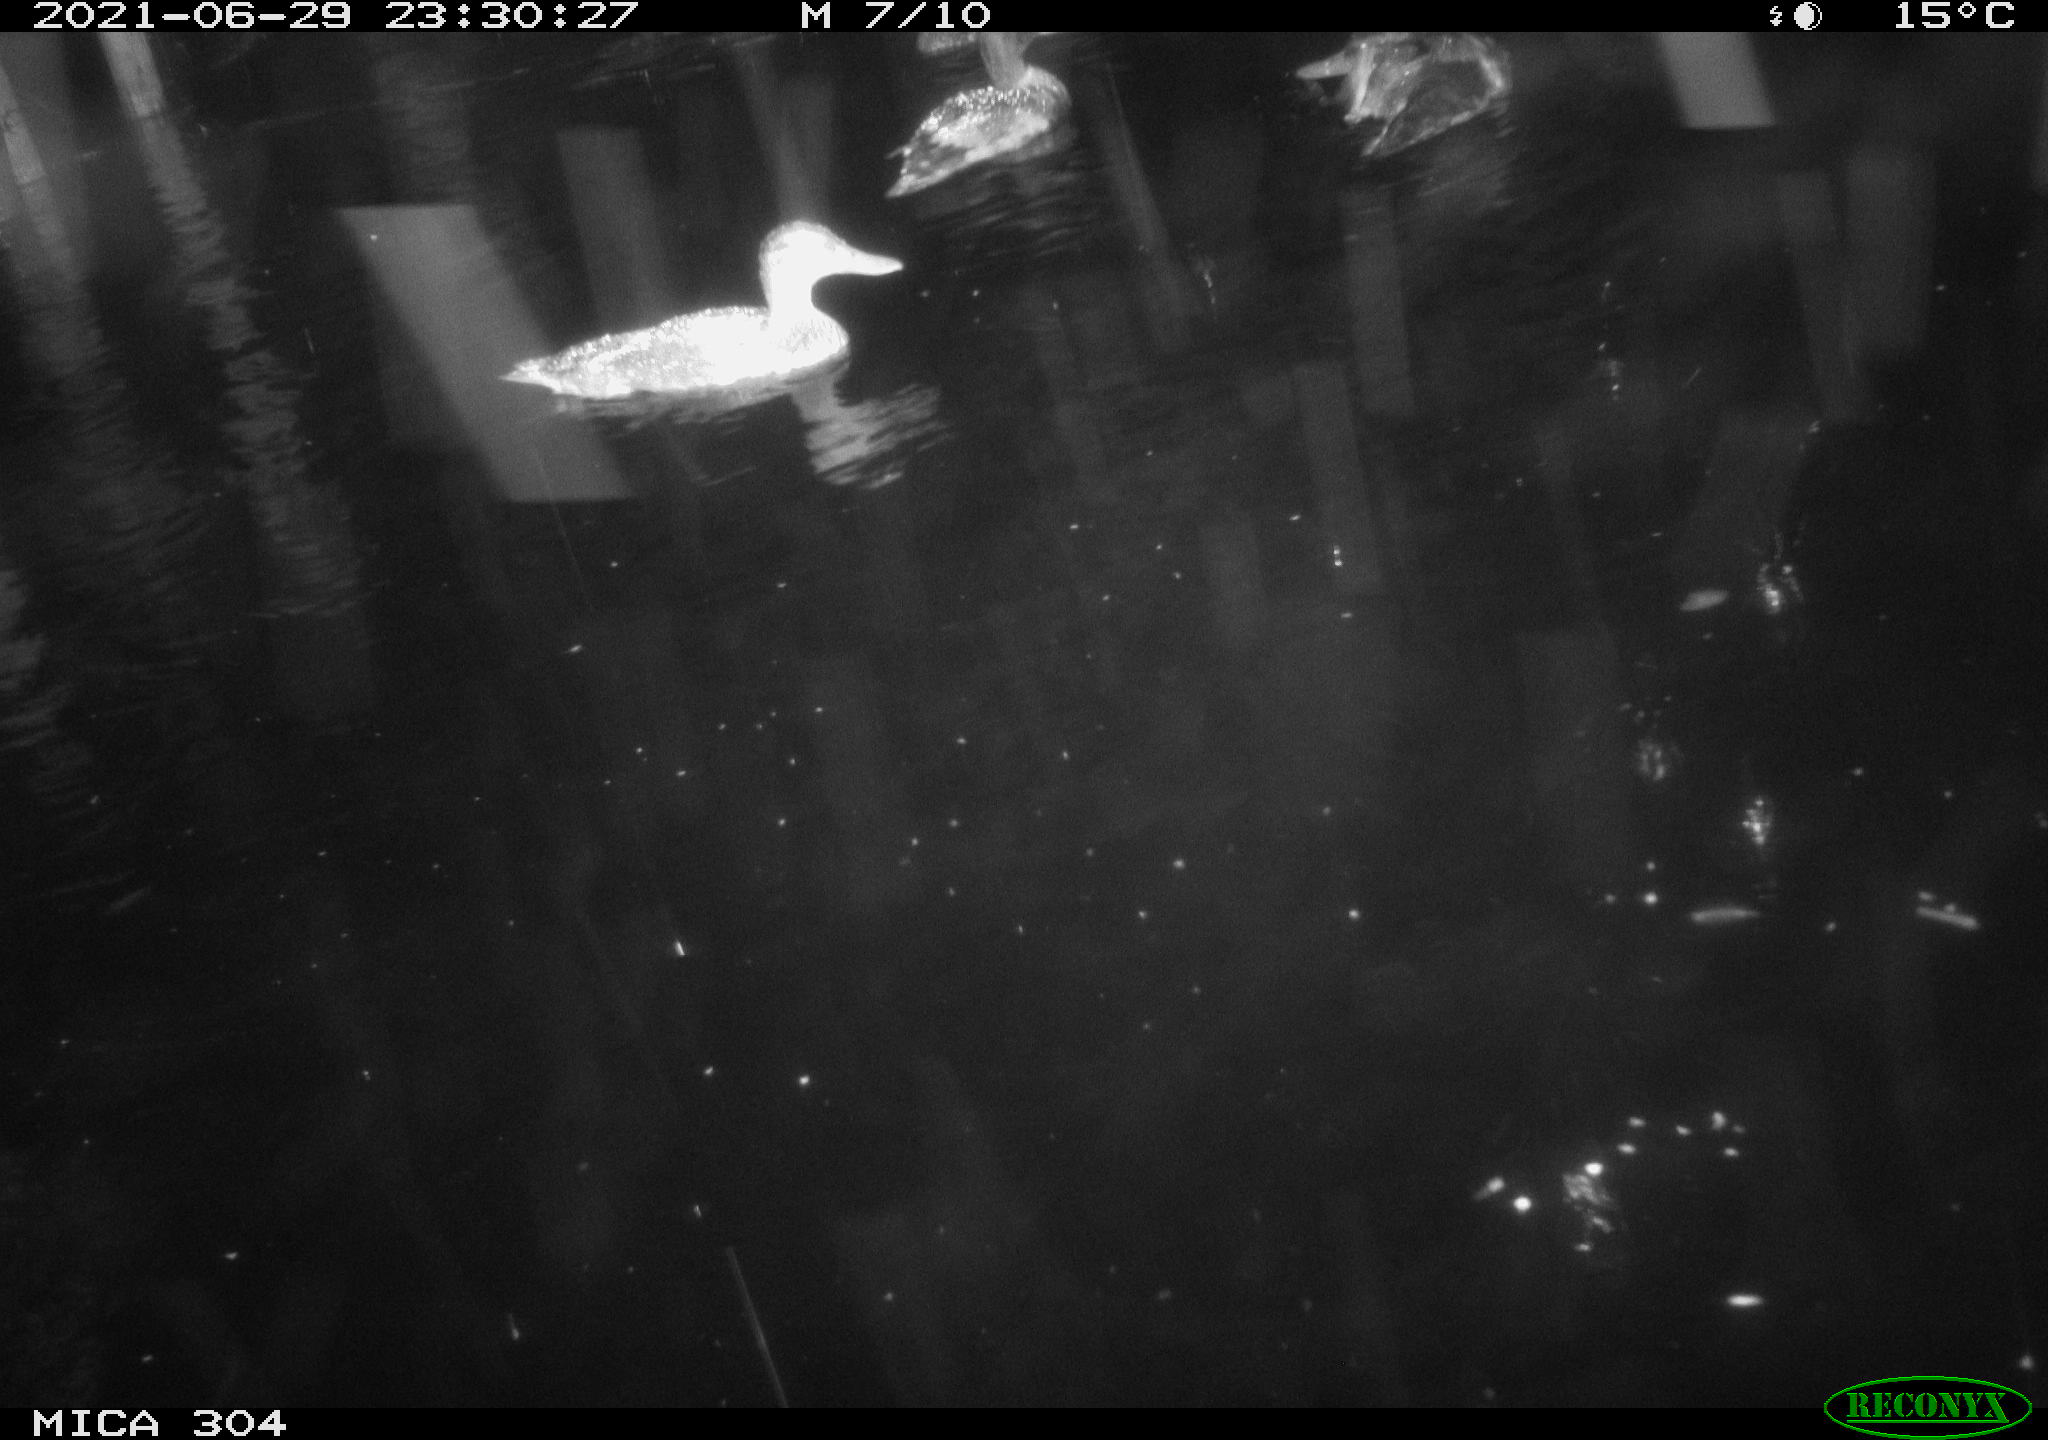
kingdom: Animalia
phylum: Chordata
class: Aves
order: Anseriformes
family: Anatidae
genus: Mareca
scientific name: Mareca strepera
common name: Gadwall
